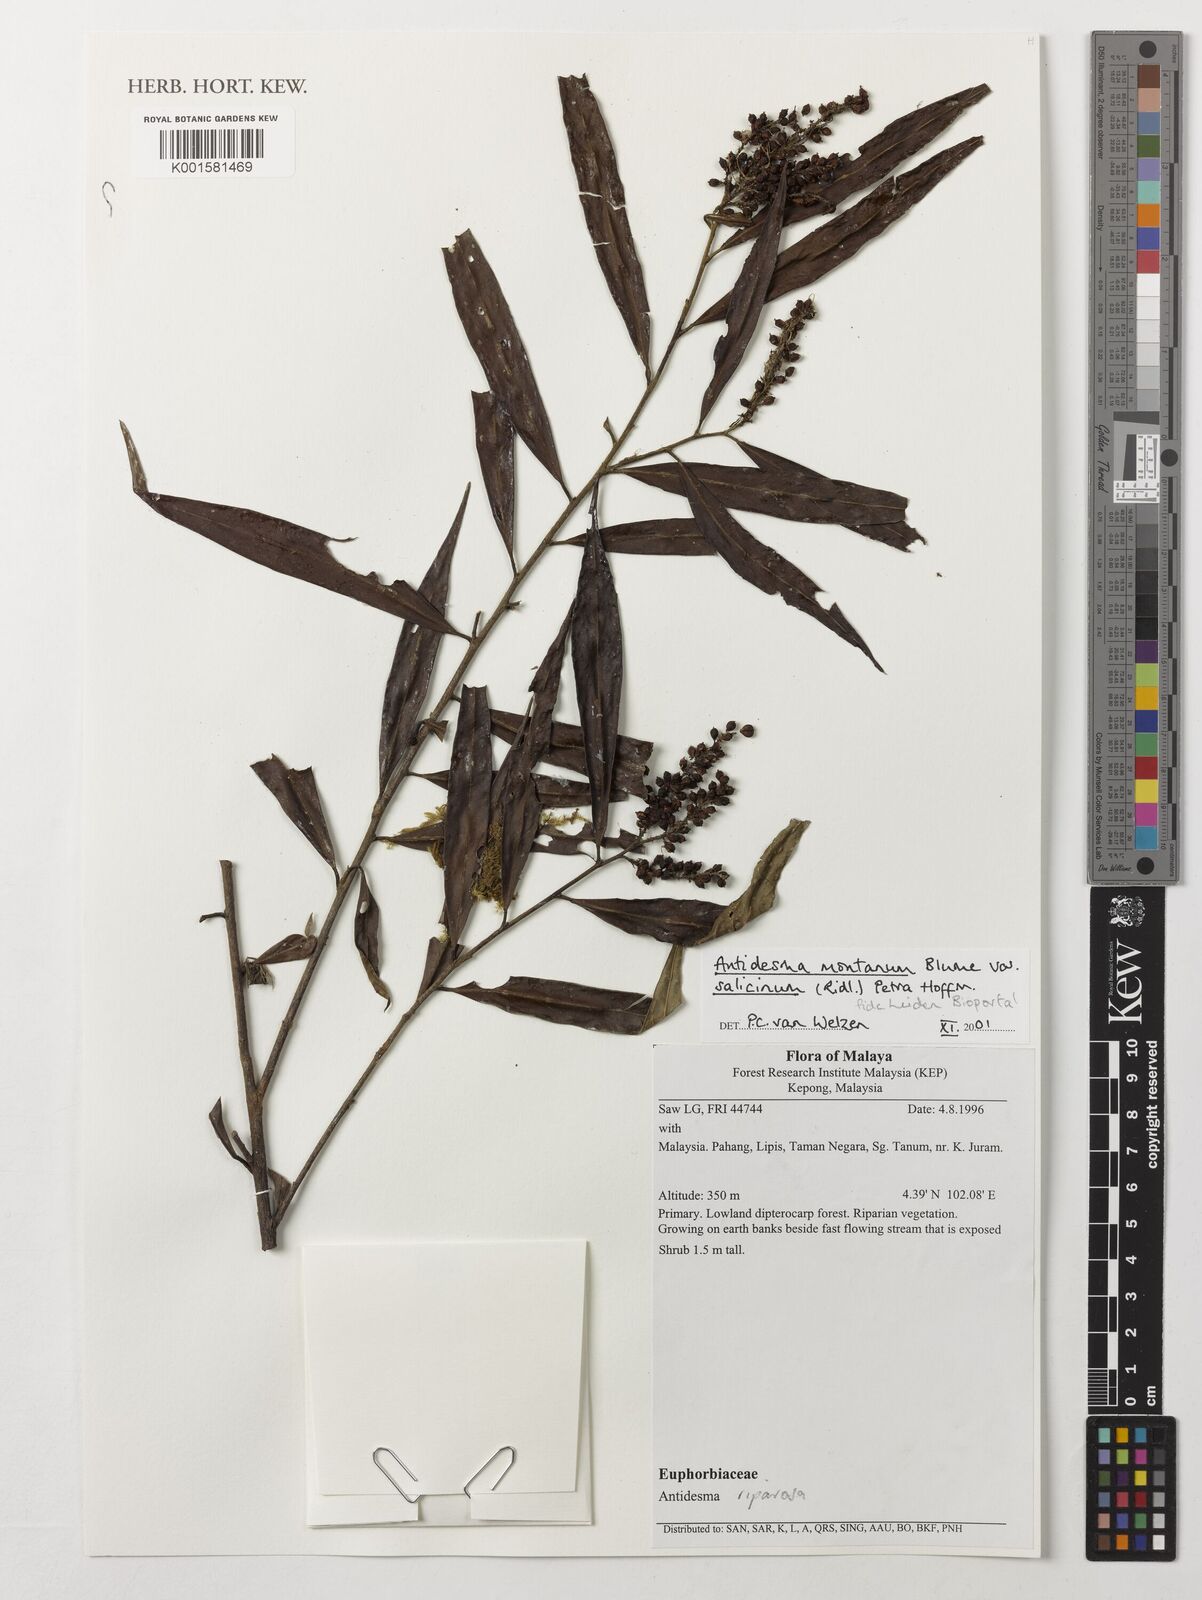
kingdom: Plantae
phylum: Tracheophyta
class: Magnoliopsida
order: Malpighiales
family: Phyllanthaceae
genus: Antidesma
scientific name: Antidesma montanum
